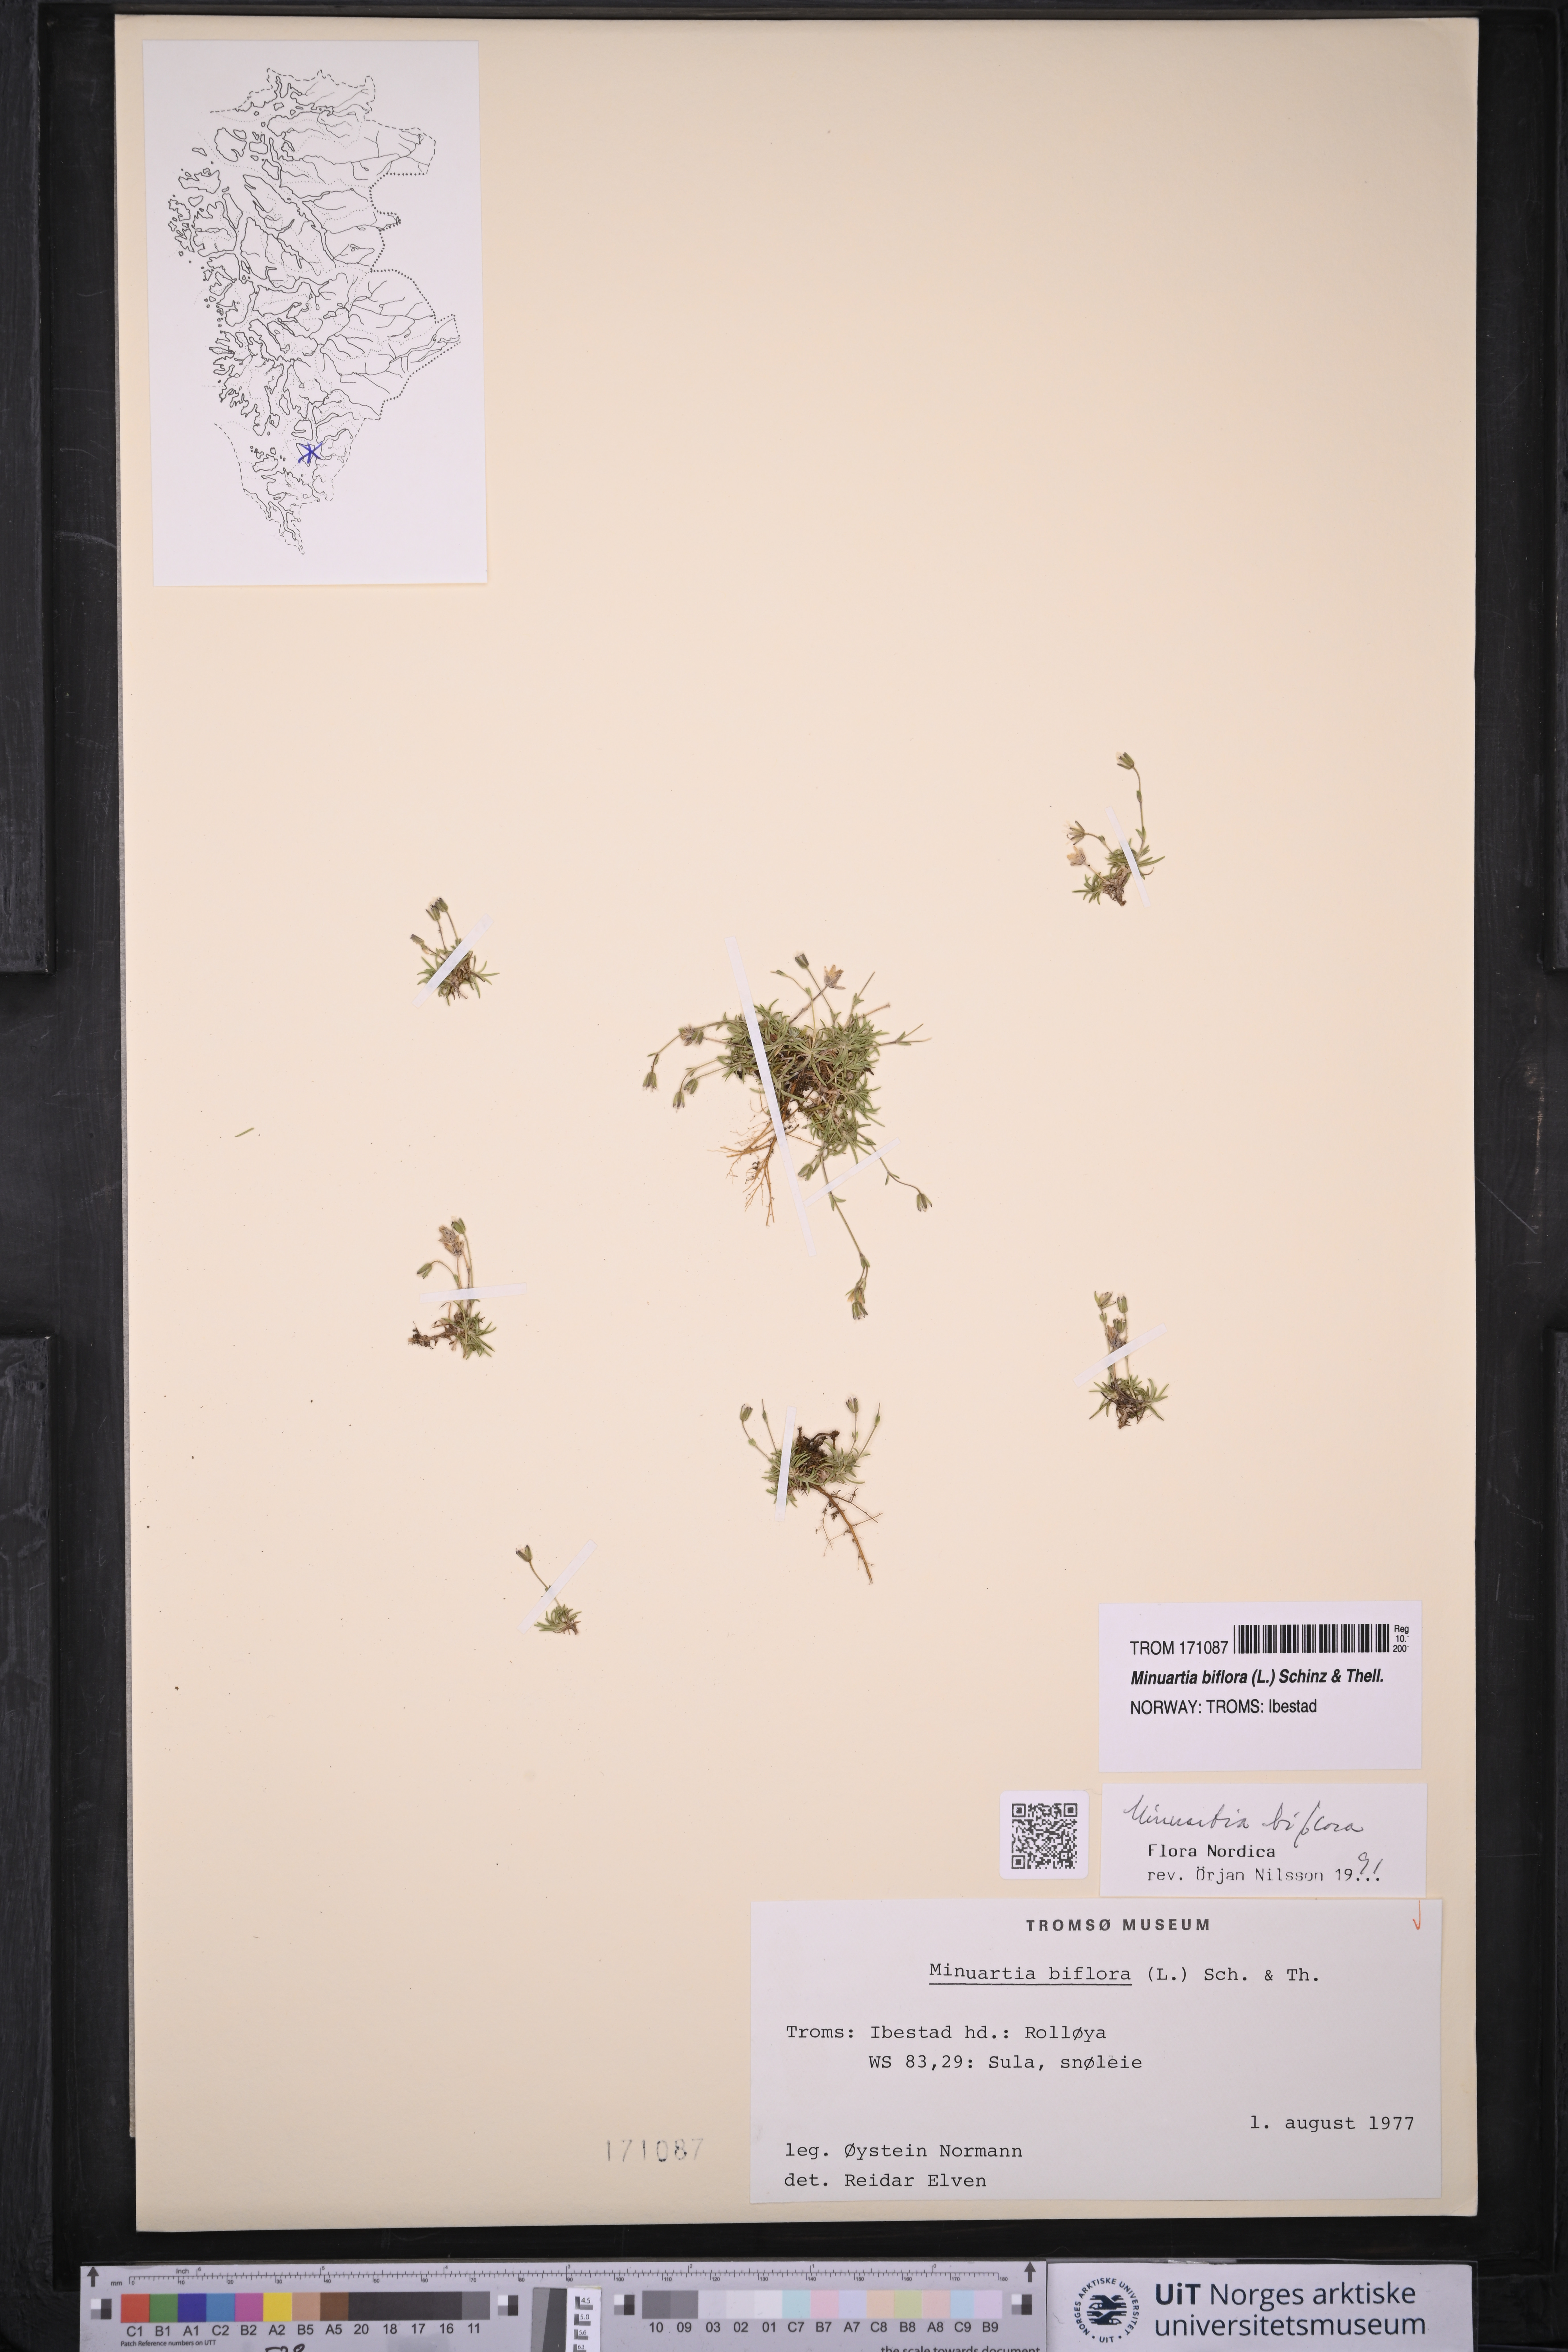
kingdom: Plantae
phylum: Tracheophyta
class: Magnoliopsida
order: Caryophyllales
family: Caryophyllaceae
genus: Cherleria
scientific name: Cherleria biflora
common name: Mountain sandwort
